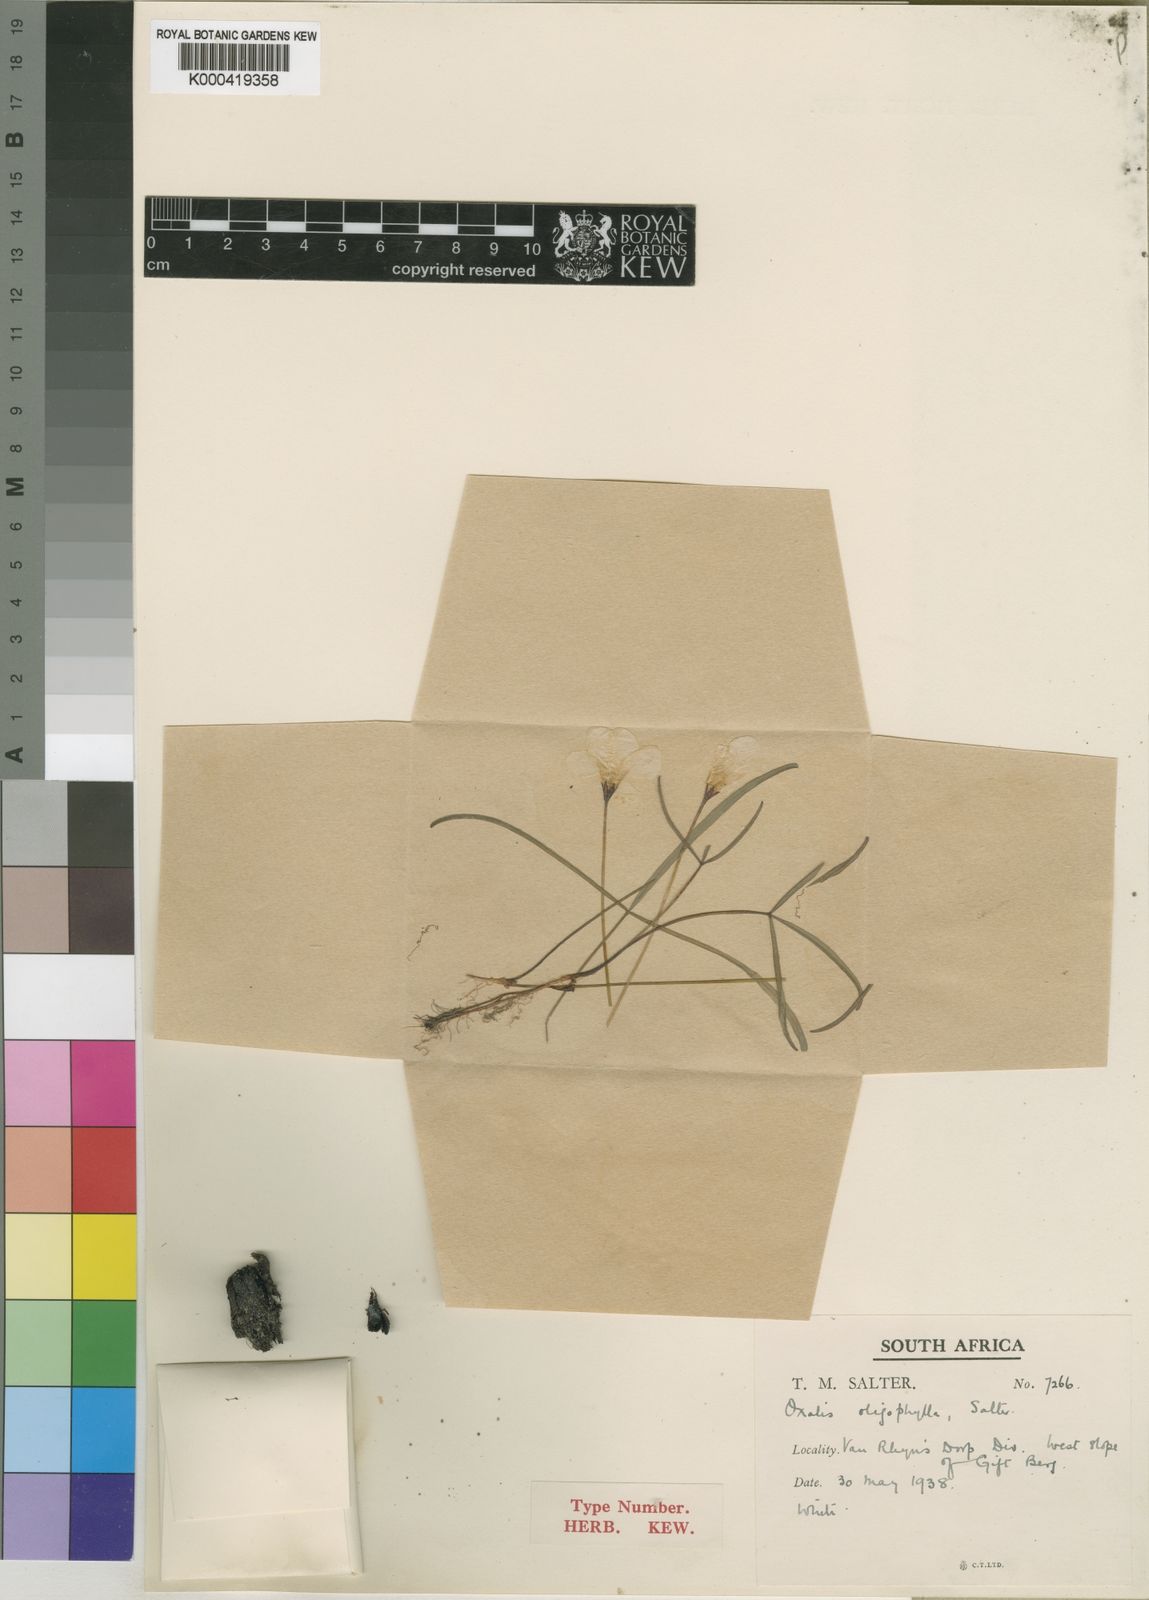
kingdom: Plantae
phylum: Tracheophyta
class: Magnoliopsida
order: Oxalidales
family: Oxalidaceae
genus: Oxalis
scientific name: Oxalis oligophylla
